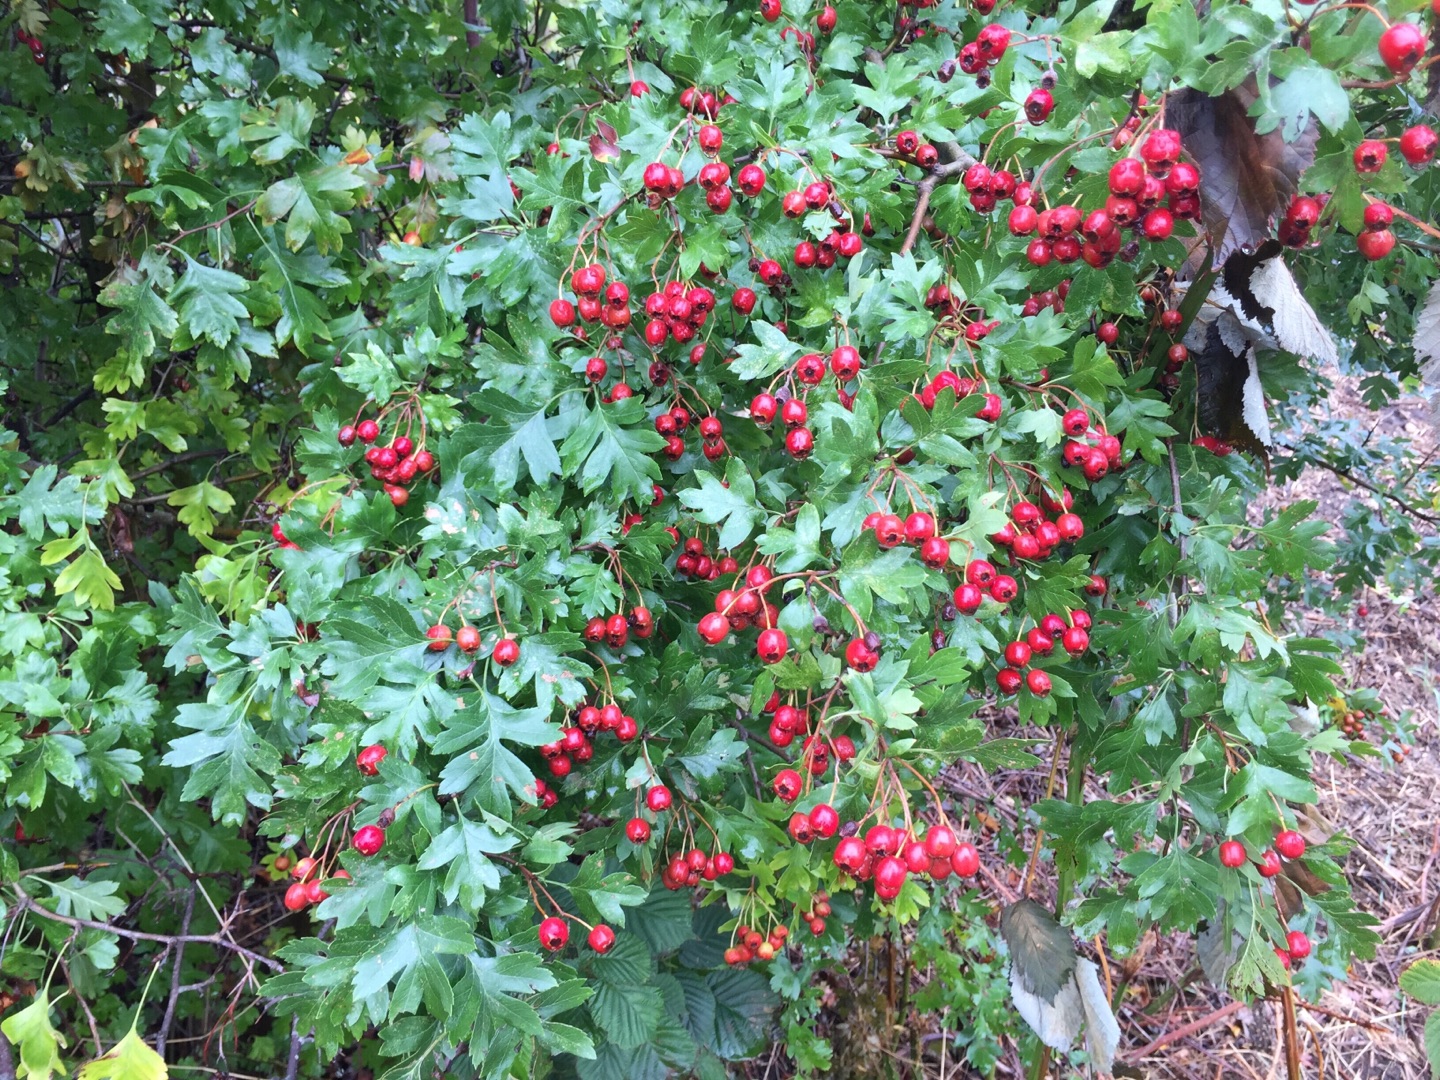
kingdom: Plantae
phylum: Tracheophyta
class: Magnoliopsida
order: Rosales
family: Rosaceae
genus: Crataegus
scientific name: Crataegus monogyna
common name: Engriflet hvidtjørn
